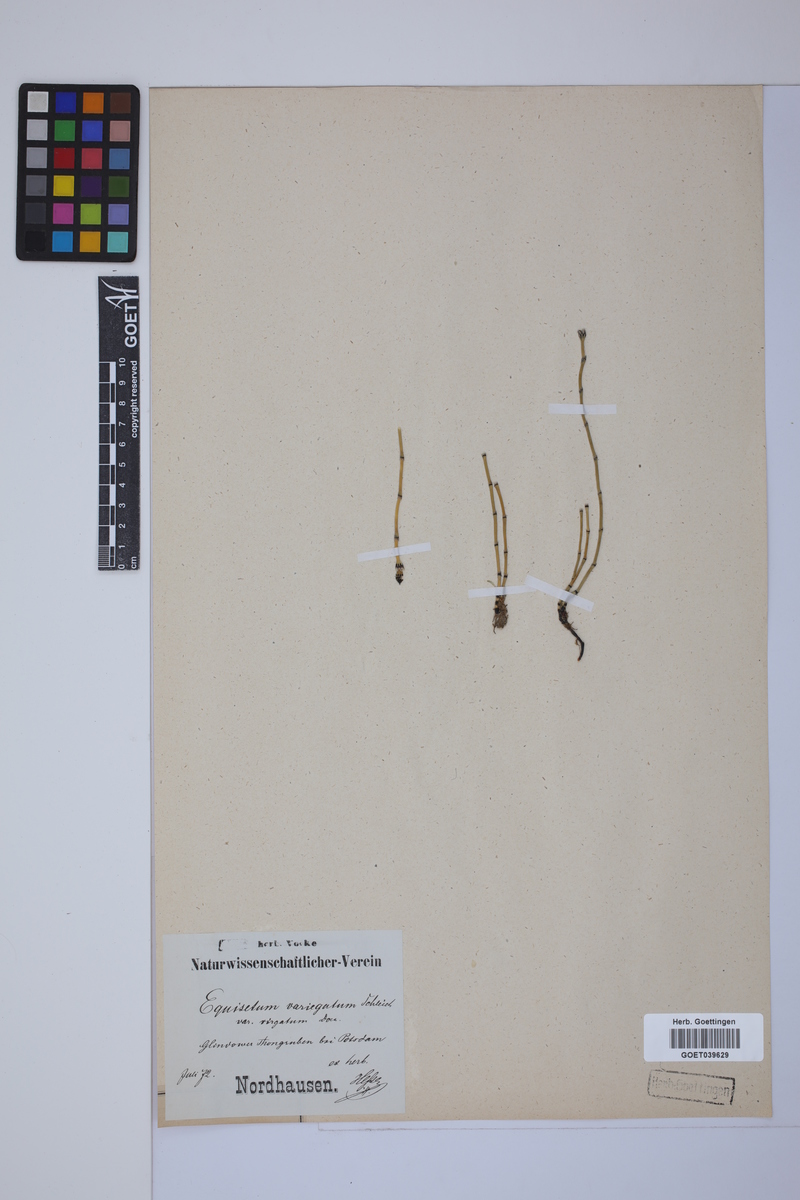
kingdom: Plantae
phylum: Tracheophyta
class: Polypodiopsida
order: Equisetales
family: Equisetaceae
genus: Equisetum
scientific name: Equisetum variegatum
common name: Variegated horsetail
